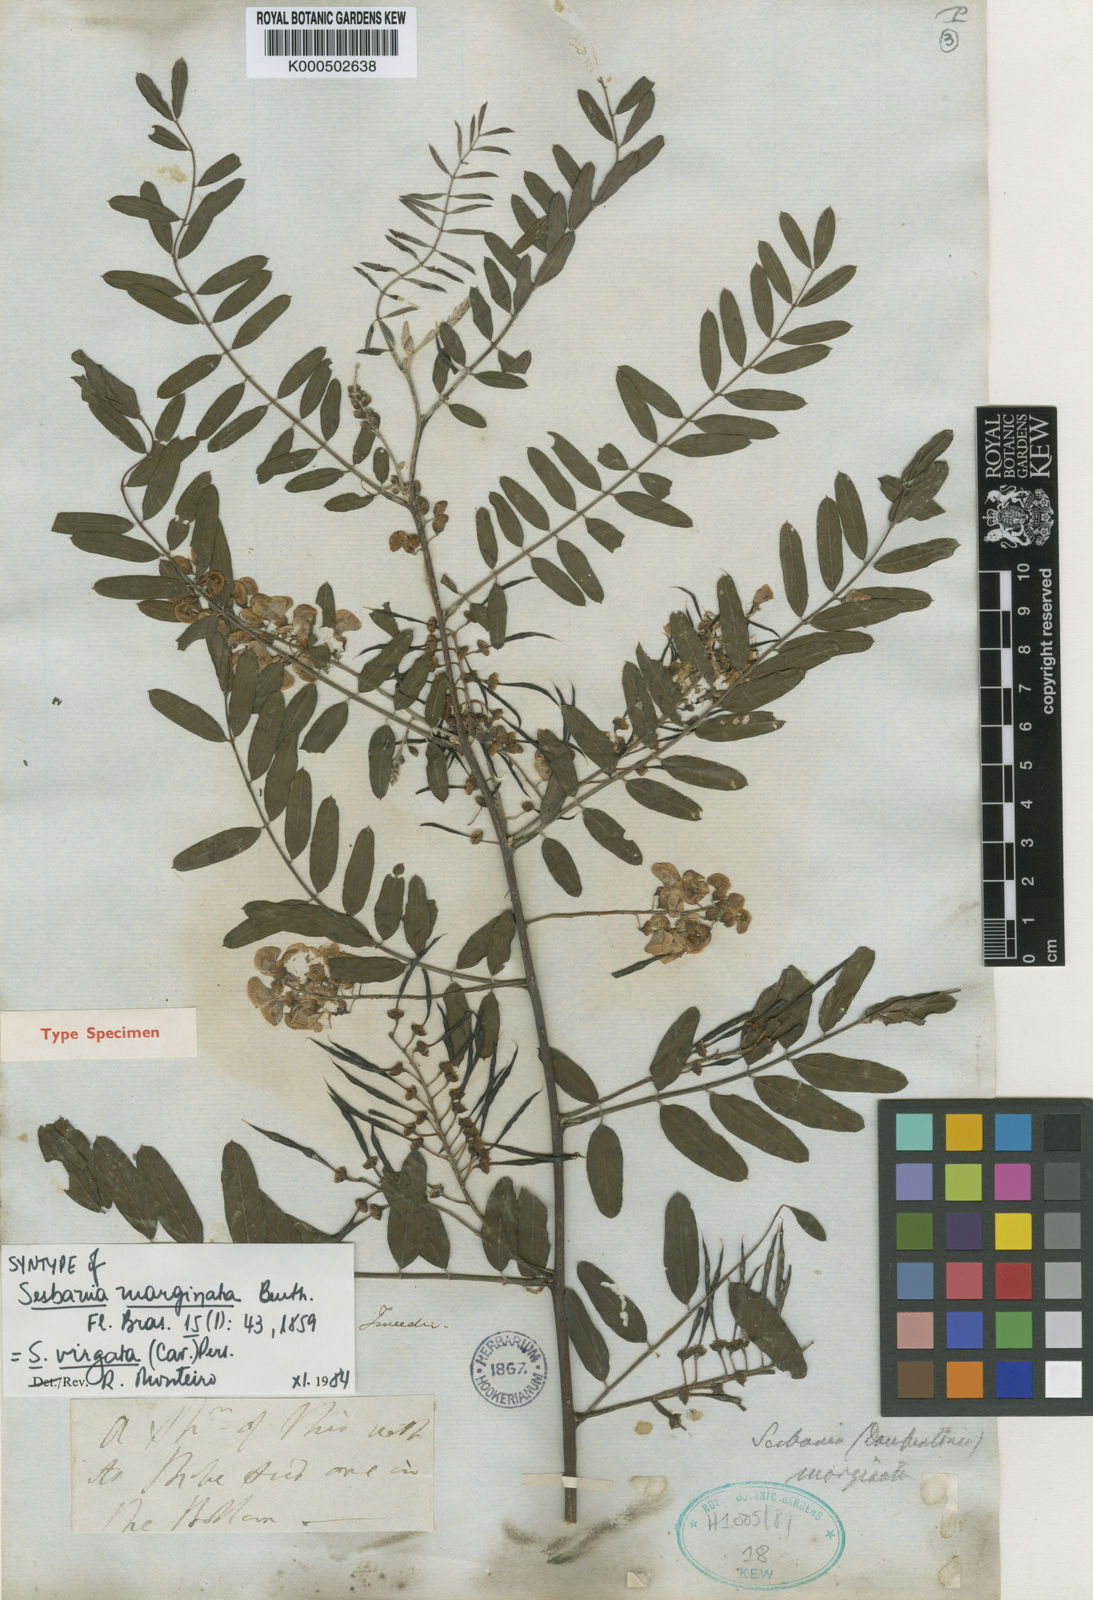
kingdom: Plantae
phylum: Tracheophyta
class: Magnoliopsida
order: Fabales
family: Fabaceae
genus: Sesbania
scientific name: Sesbania
